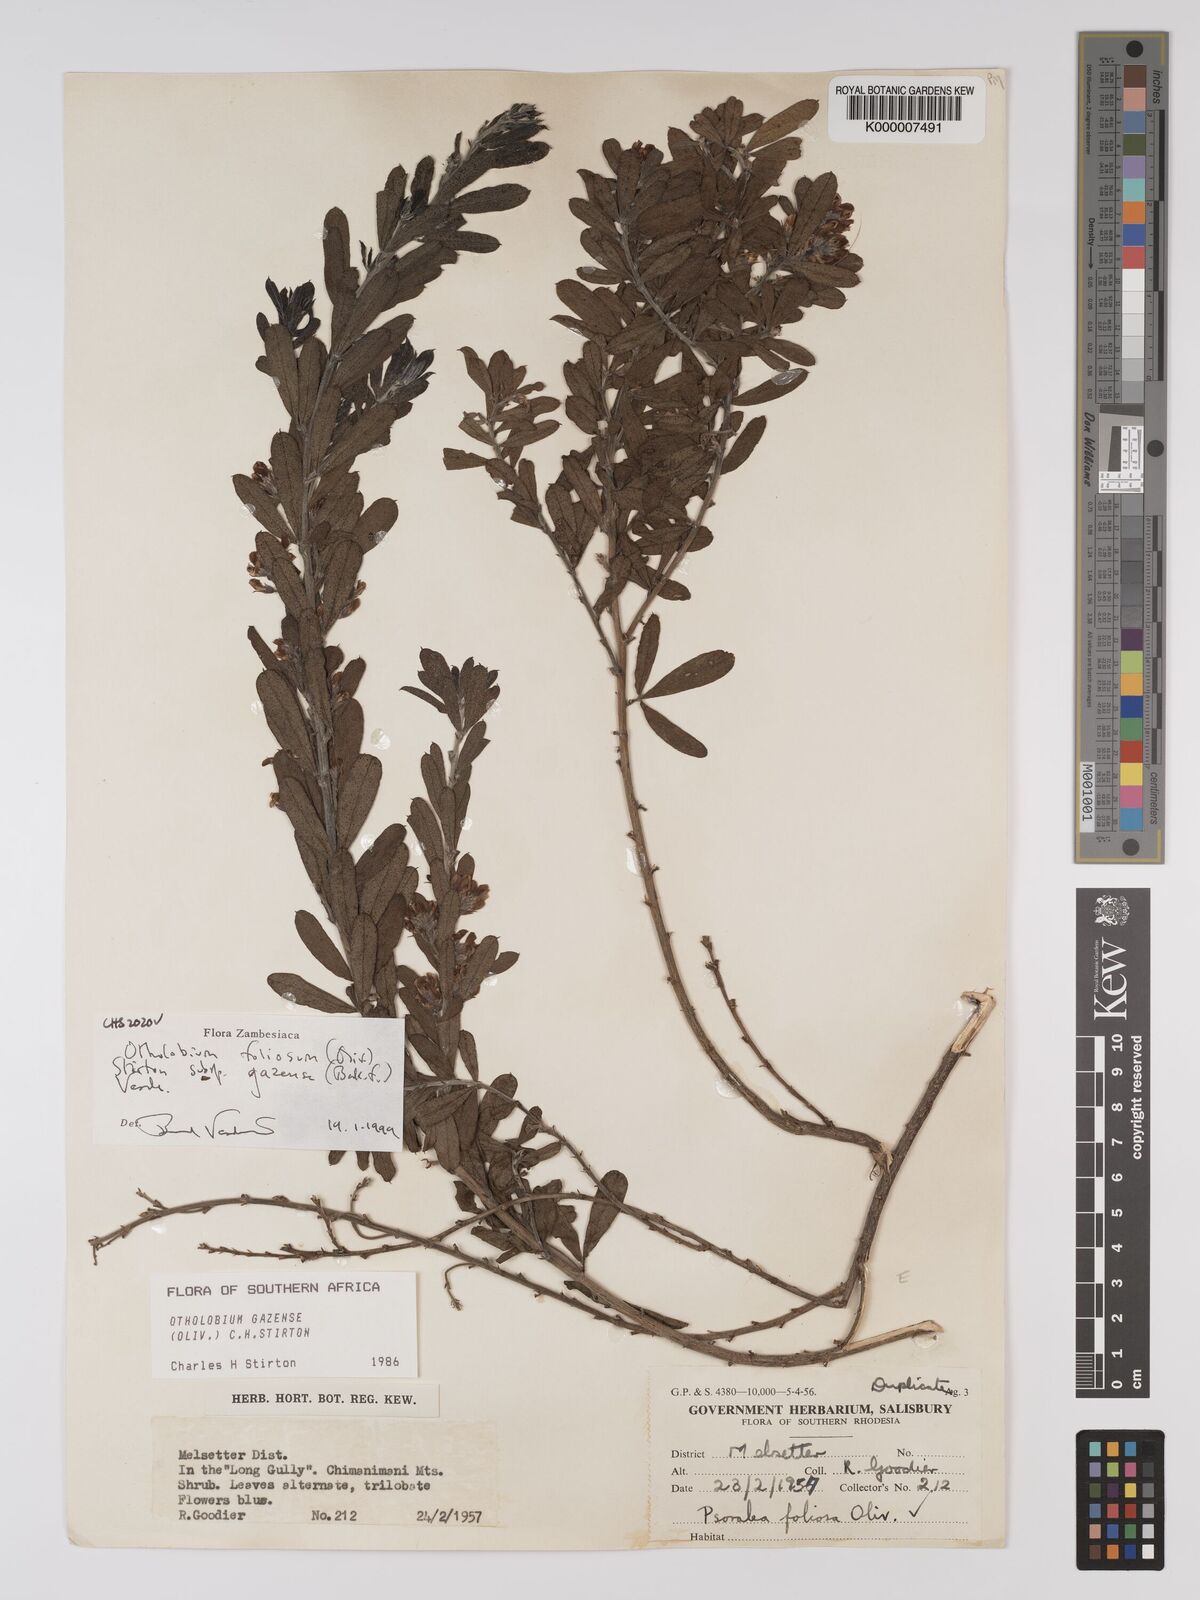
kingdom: Plantae
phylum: Tracheophyta
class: Magnoliopsida
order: Fabales
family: Fabaceae
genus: Psoralea
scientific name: Psoralea foliosa
